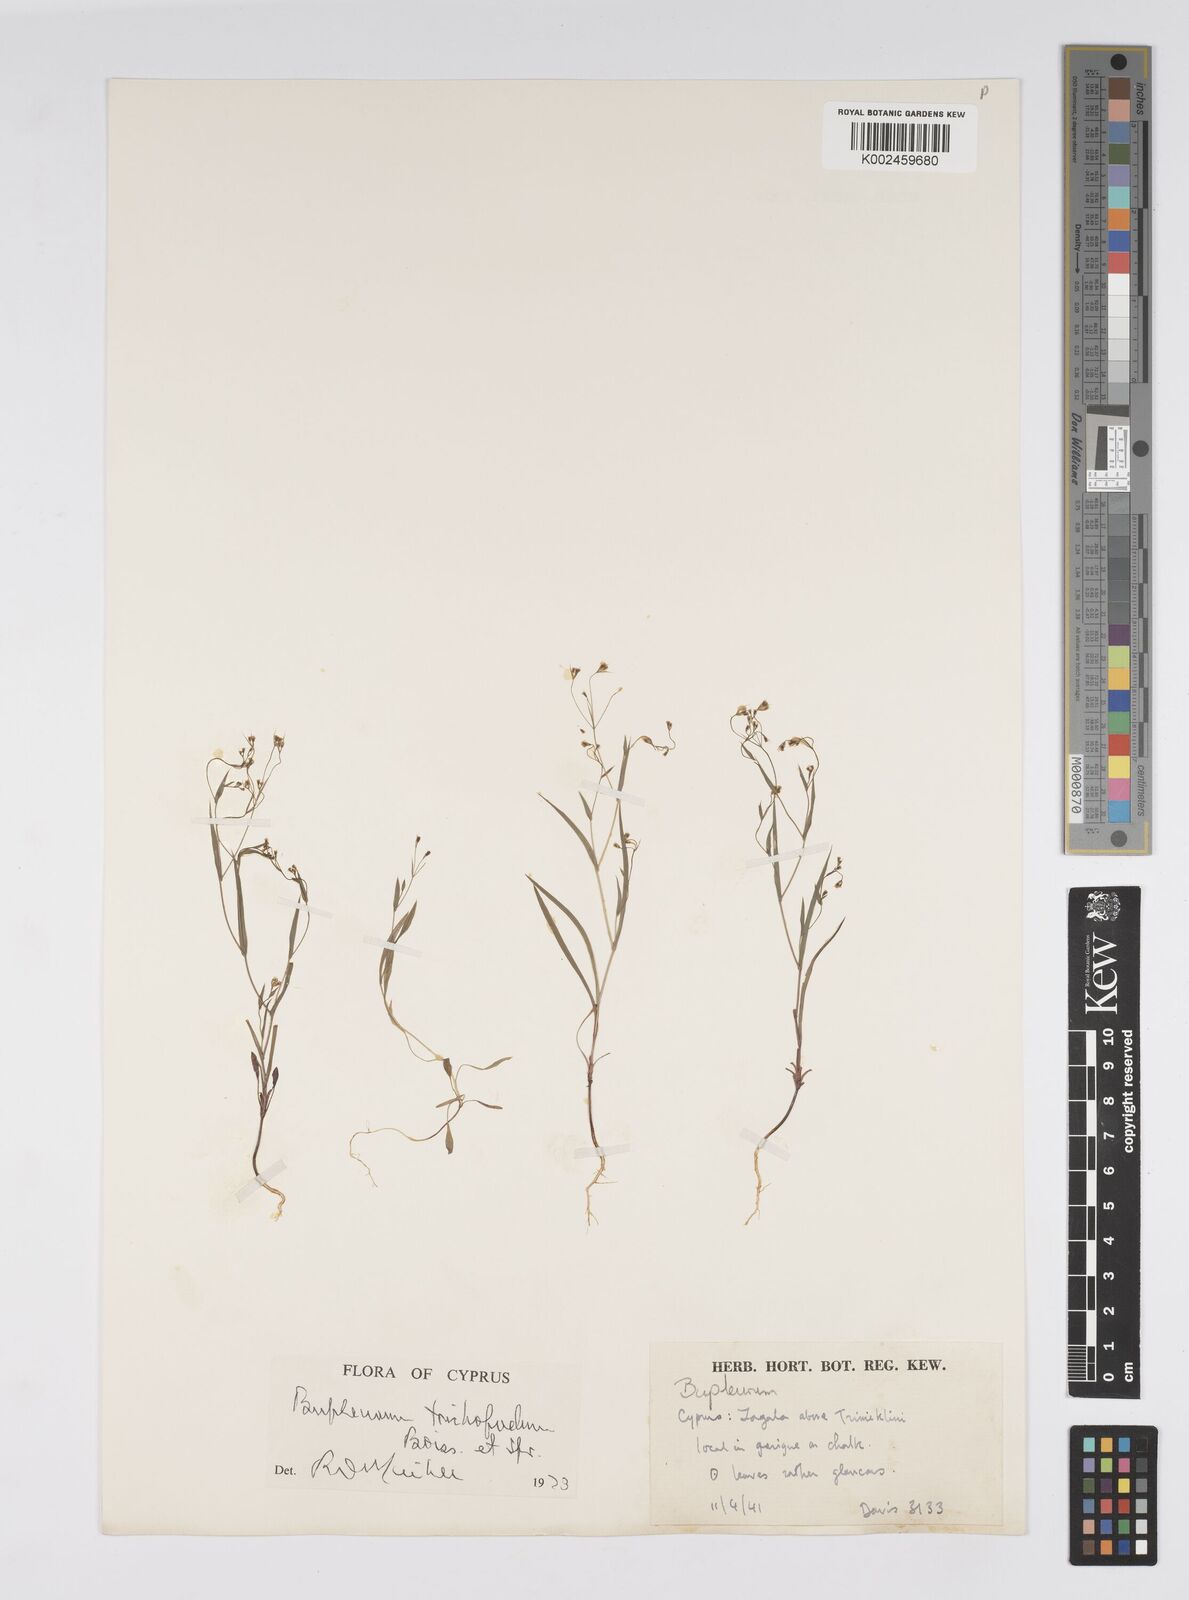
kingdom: Plantae
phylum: Tracheophyta
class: Magnoliopsida
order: Apiales
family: Apiaceae
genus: Bupleurum
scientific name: Bupleurum trichopodum
